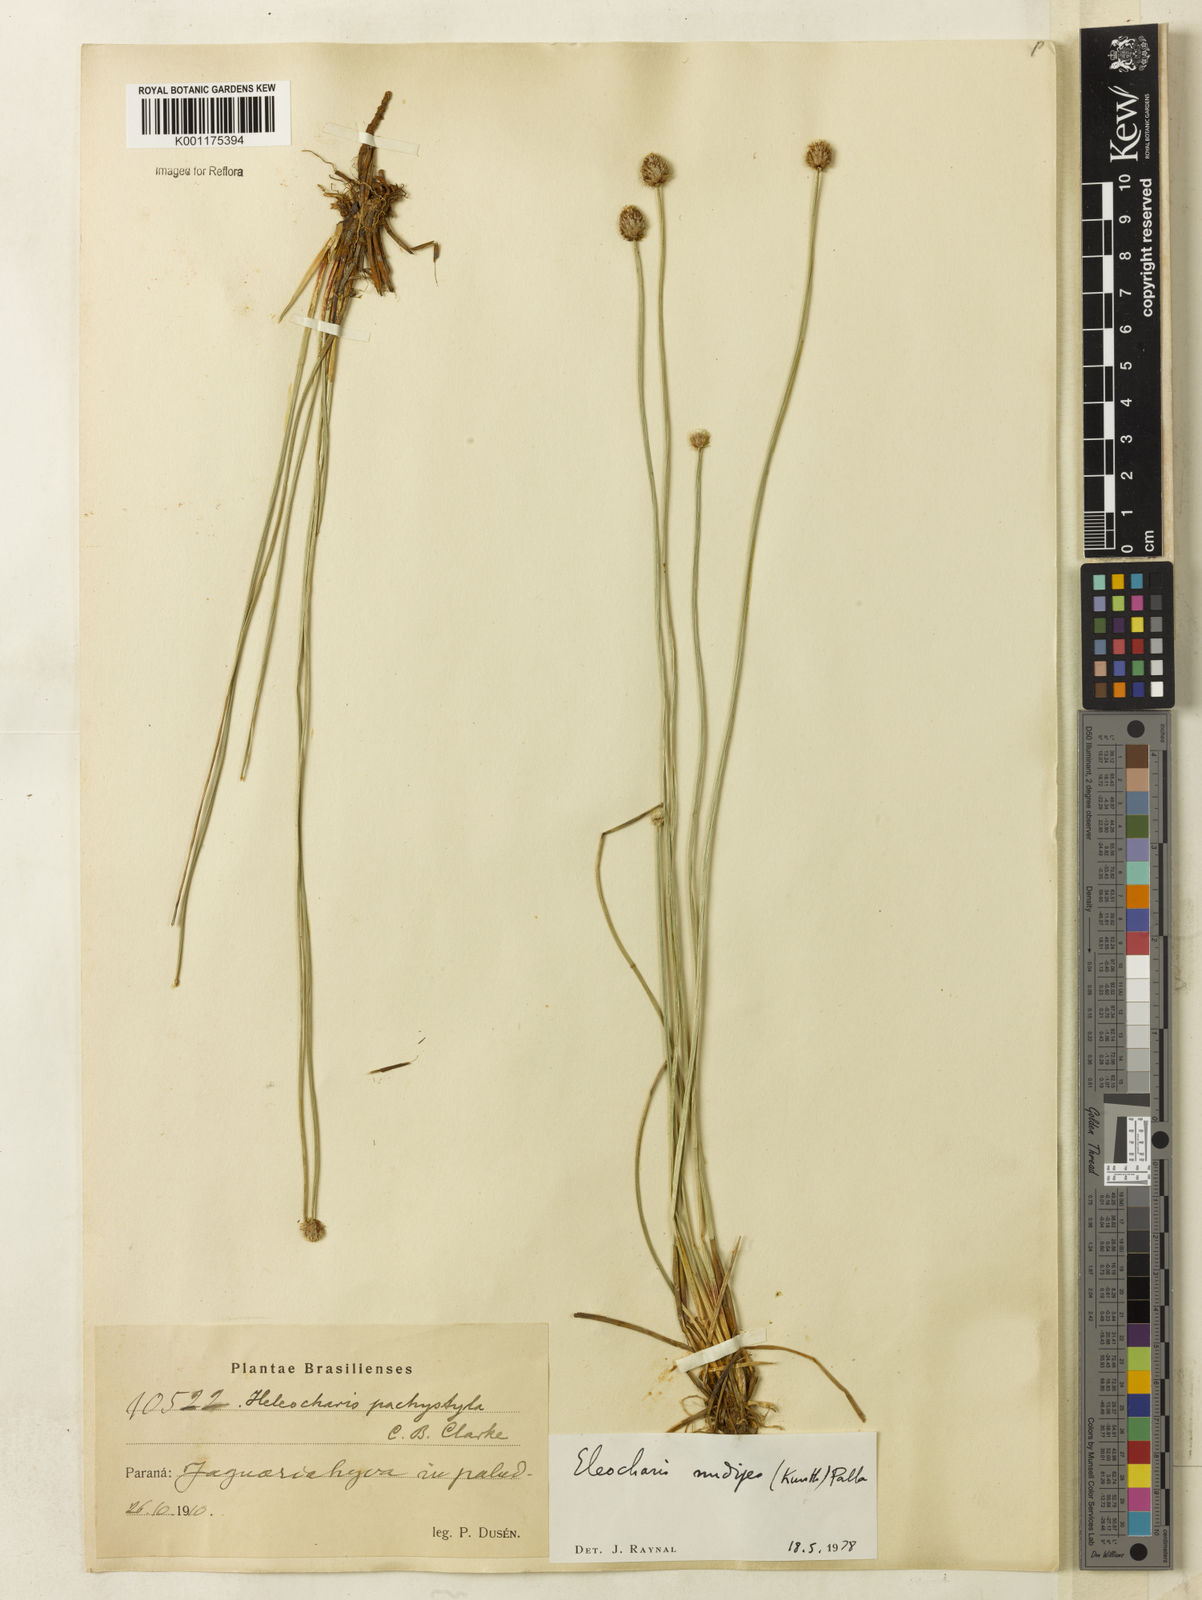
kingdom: Plantae
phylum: Tracheophyta
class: Liliopsida
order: Poales
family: Cyperaceae
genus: Eleocharis
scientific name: Eleocharis nudipes
